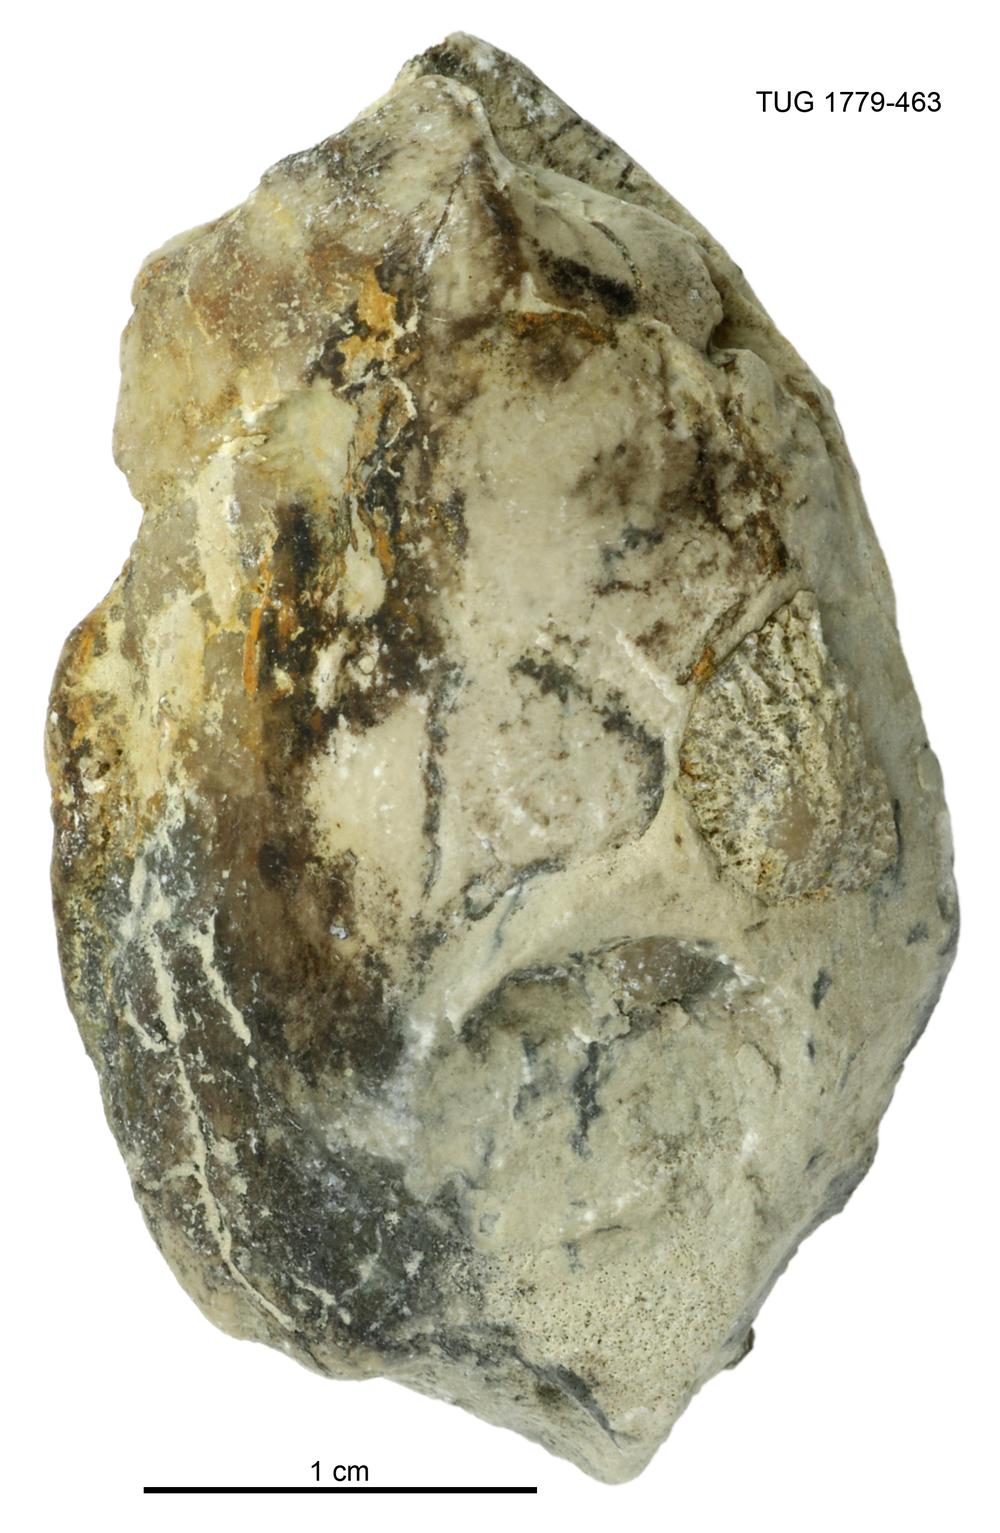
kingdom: Animalia
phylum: Mollusca
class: Bivalvia
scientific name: Bivalvia
